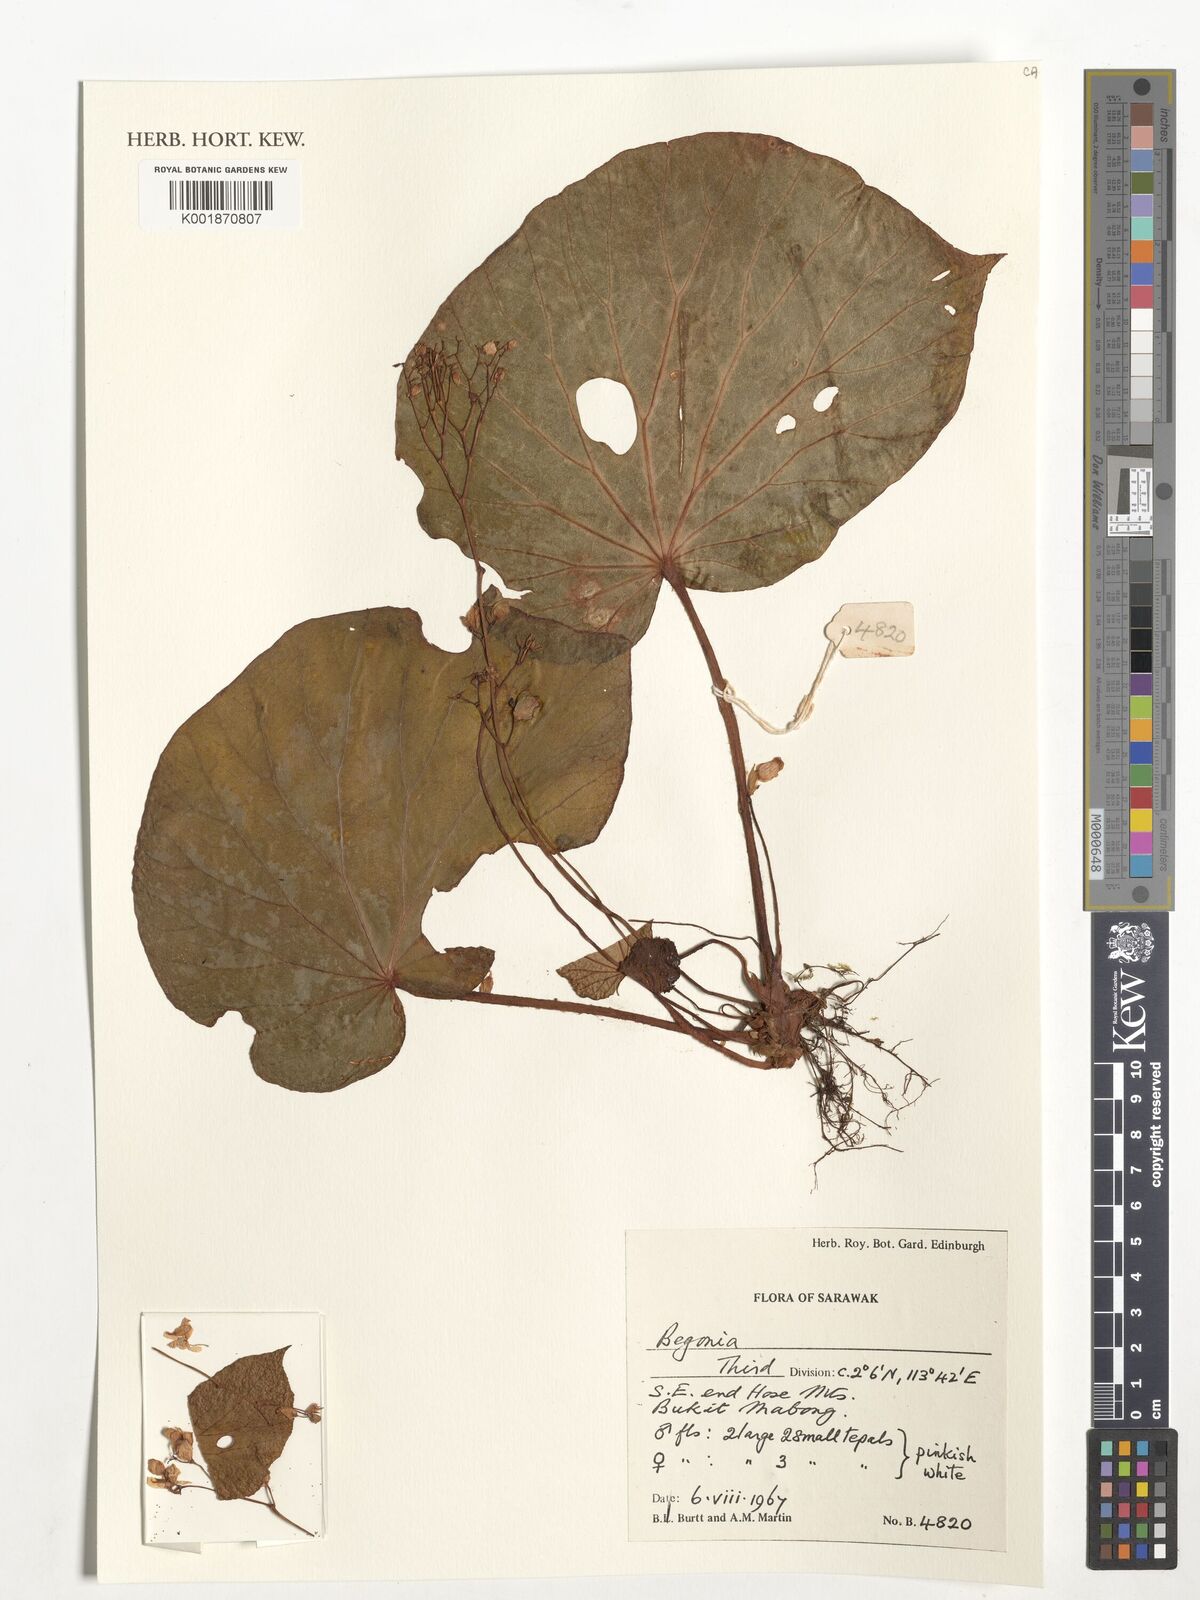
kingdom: Plantae
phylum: Tracheophyta
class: Magnoliopsida
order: Cucurbitales
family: Begoniaceae
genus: Begonia
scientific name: Begonia
